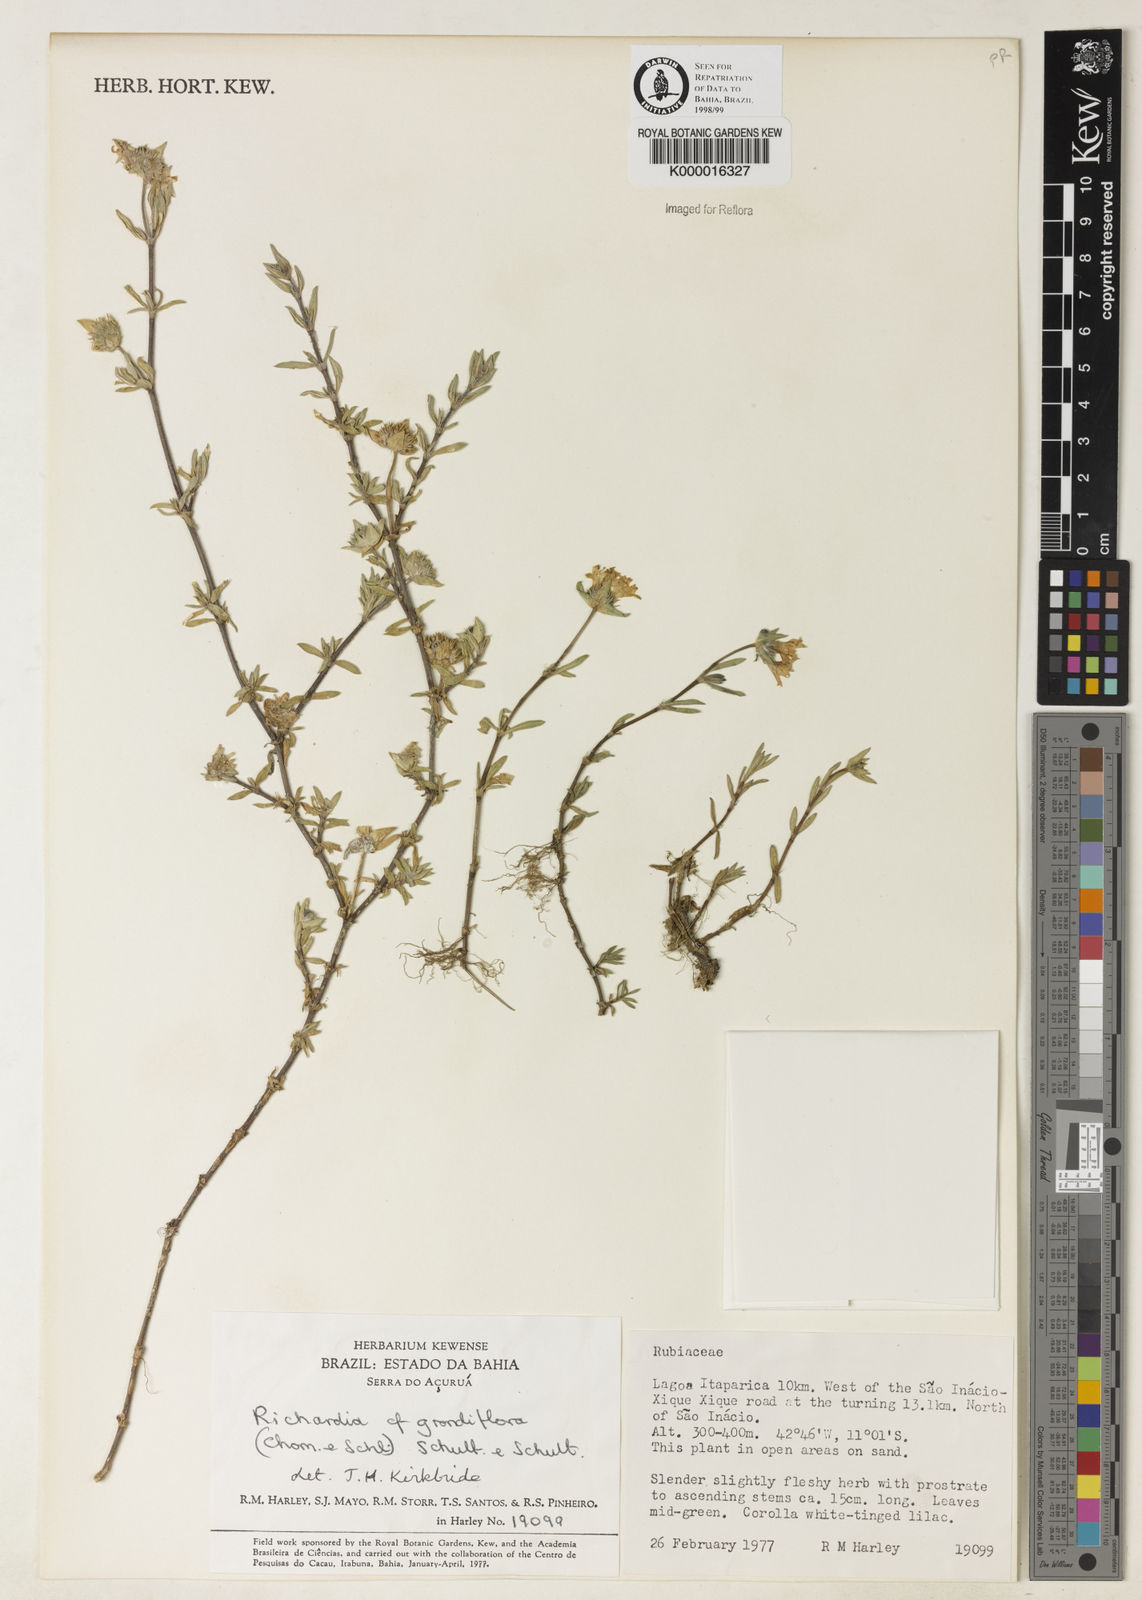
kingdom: Plantae
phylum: Tracheophyta
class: Magnoliopsida
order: Gentianales
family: Rubiaceae
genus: Richardia
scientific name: Richardia grandiflora
